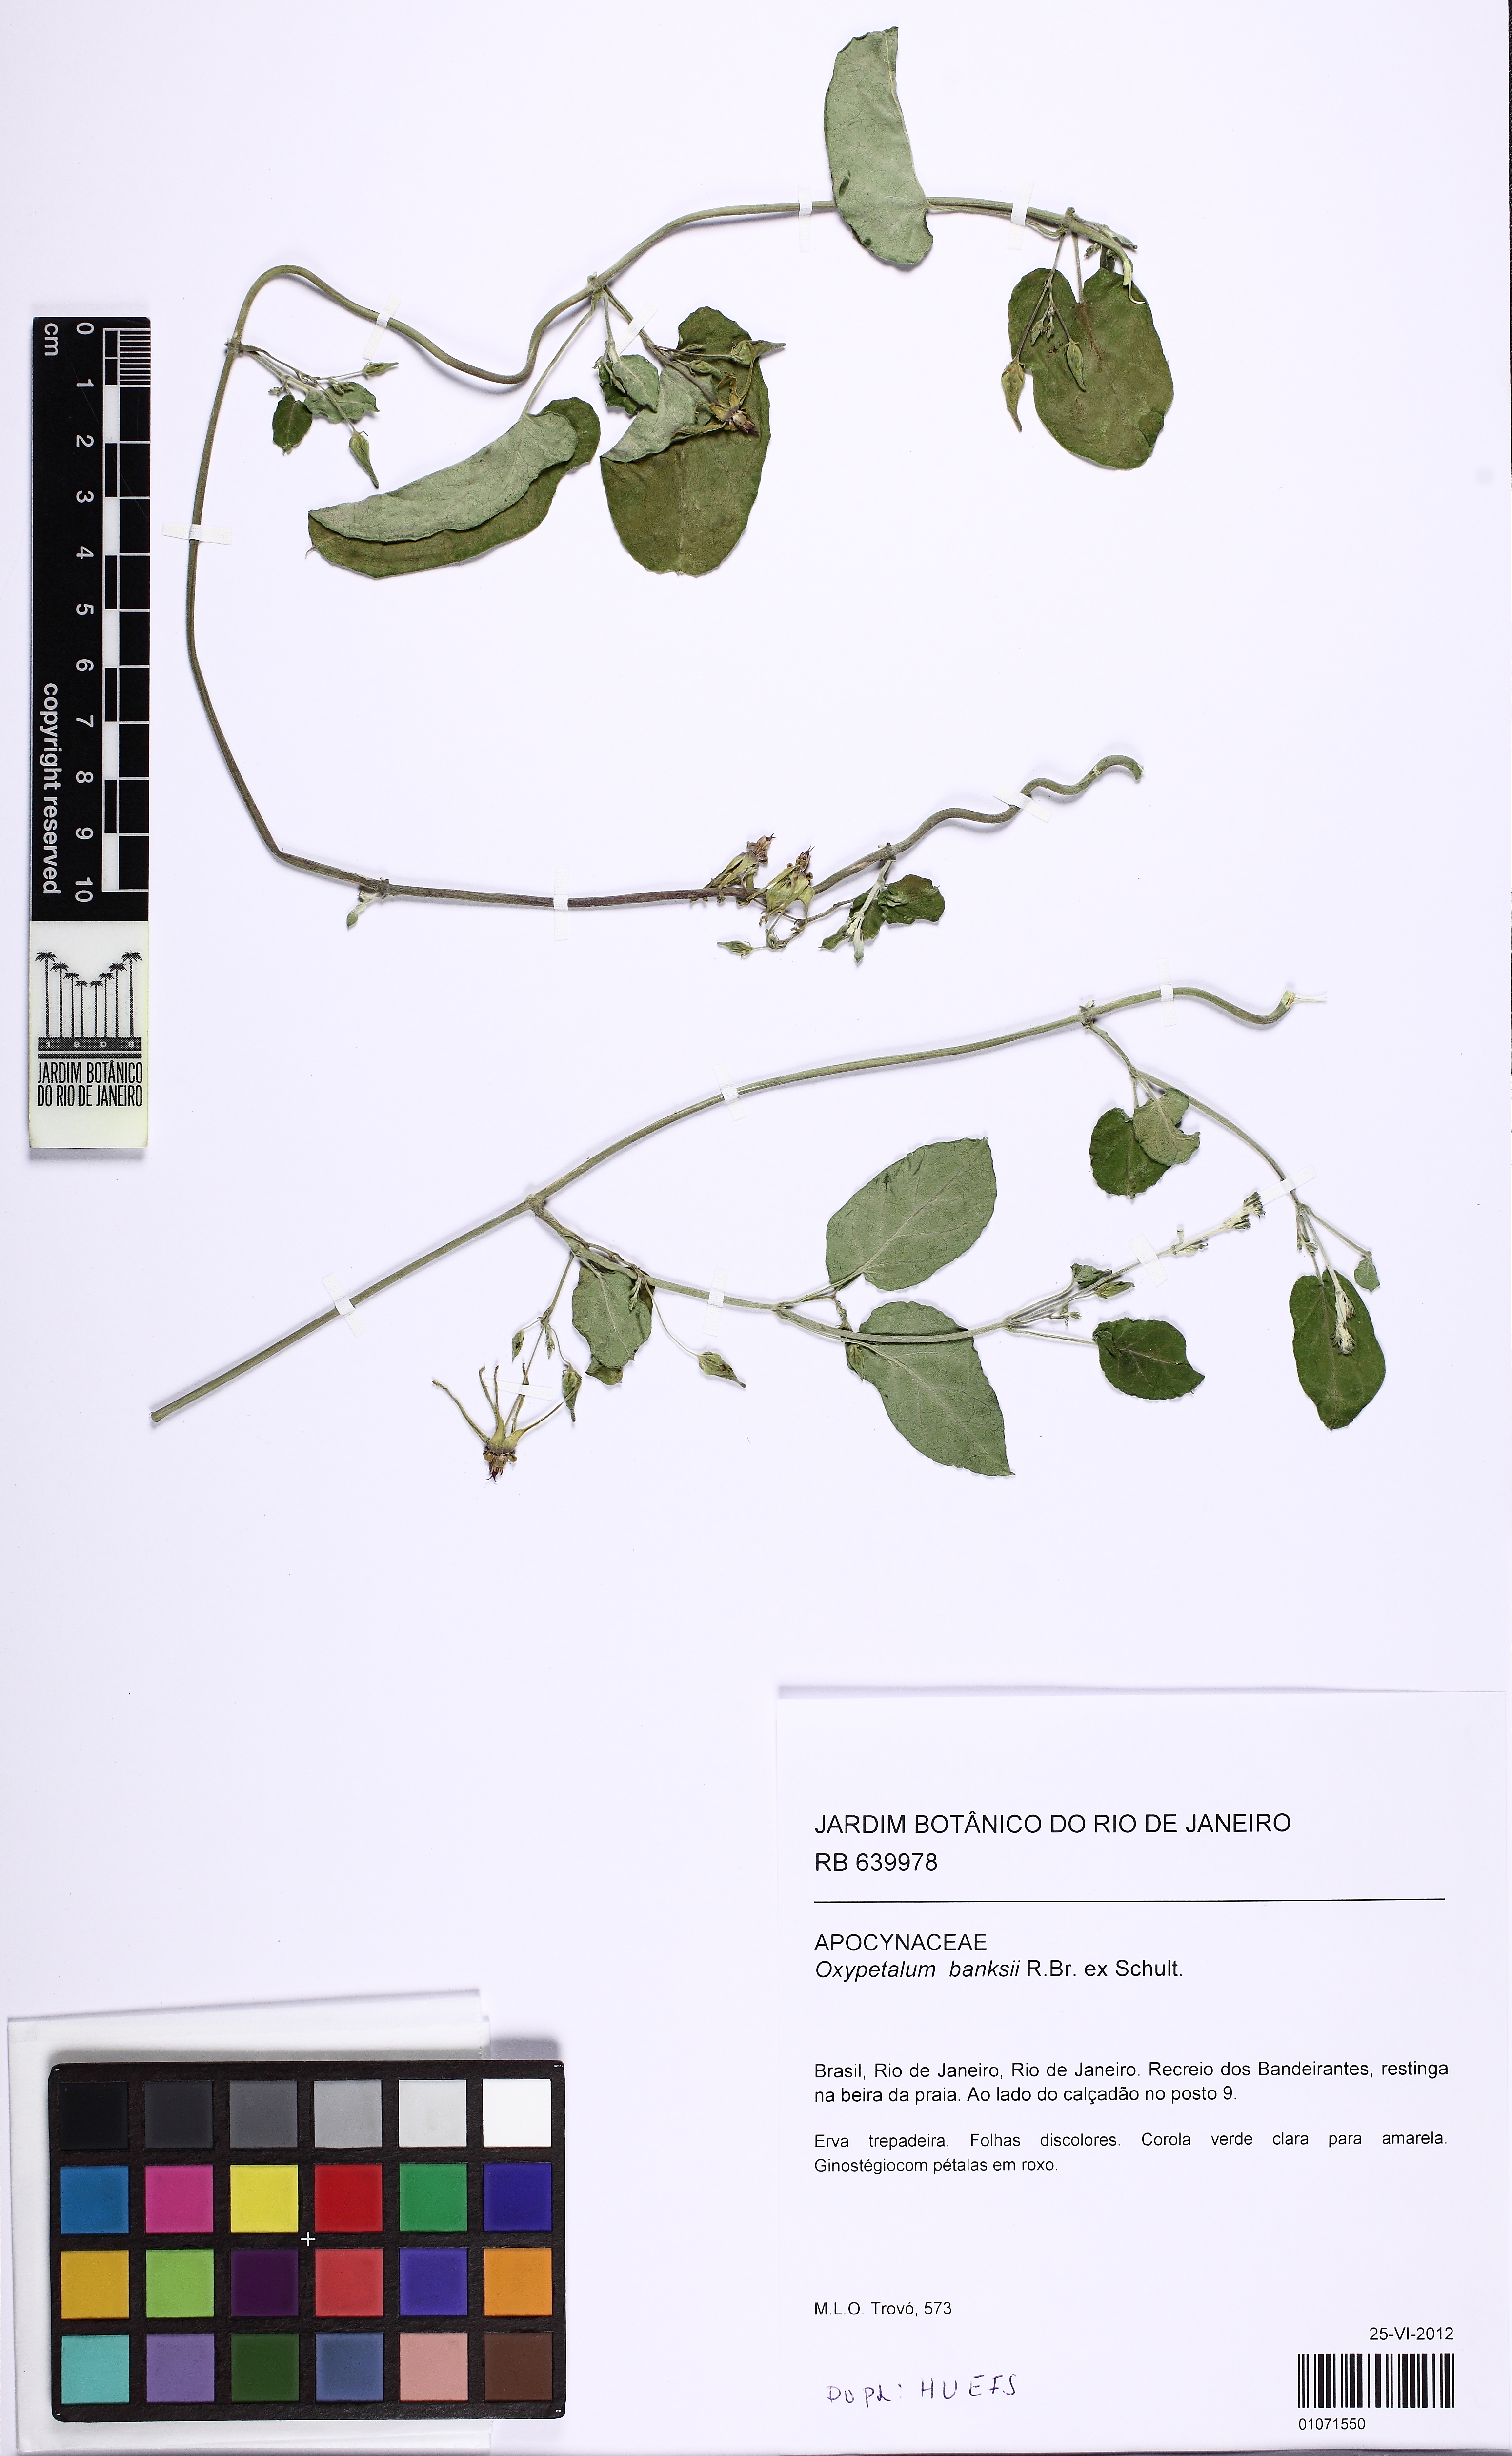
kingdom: Plantae
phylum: Tracheophyta
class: Magnoliopsida
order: Gentianales
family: Apocynaceae
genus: Oxypetalum
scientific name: Oxypetalum banksii
